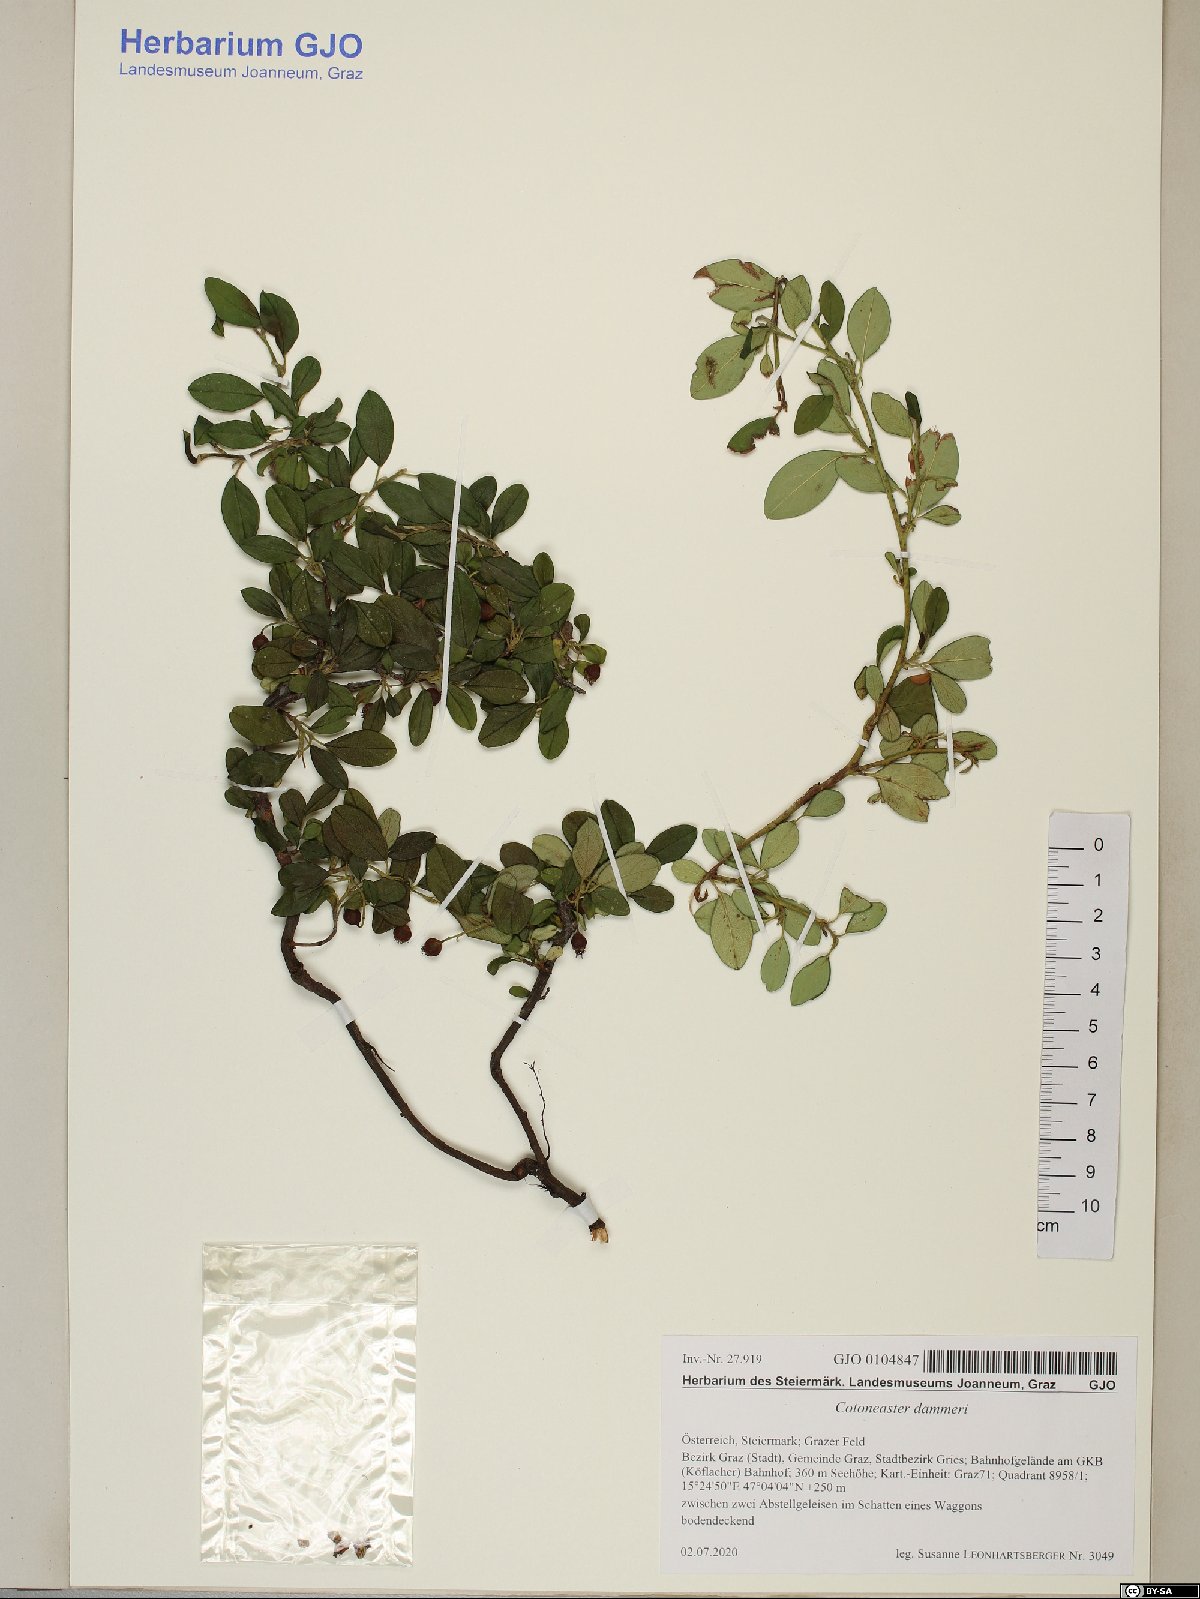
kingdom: Plantae
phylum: Tracheophyta
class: Magnoliopsida
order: Rosales
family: Rosaceae
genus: Cotoneaster
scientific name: Cotoneaster dammeri
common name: Bearberry cotoneaster
